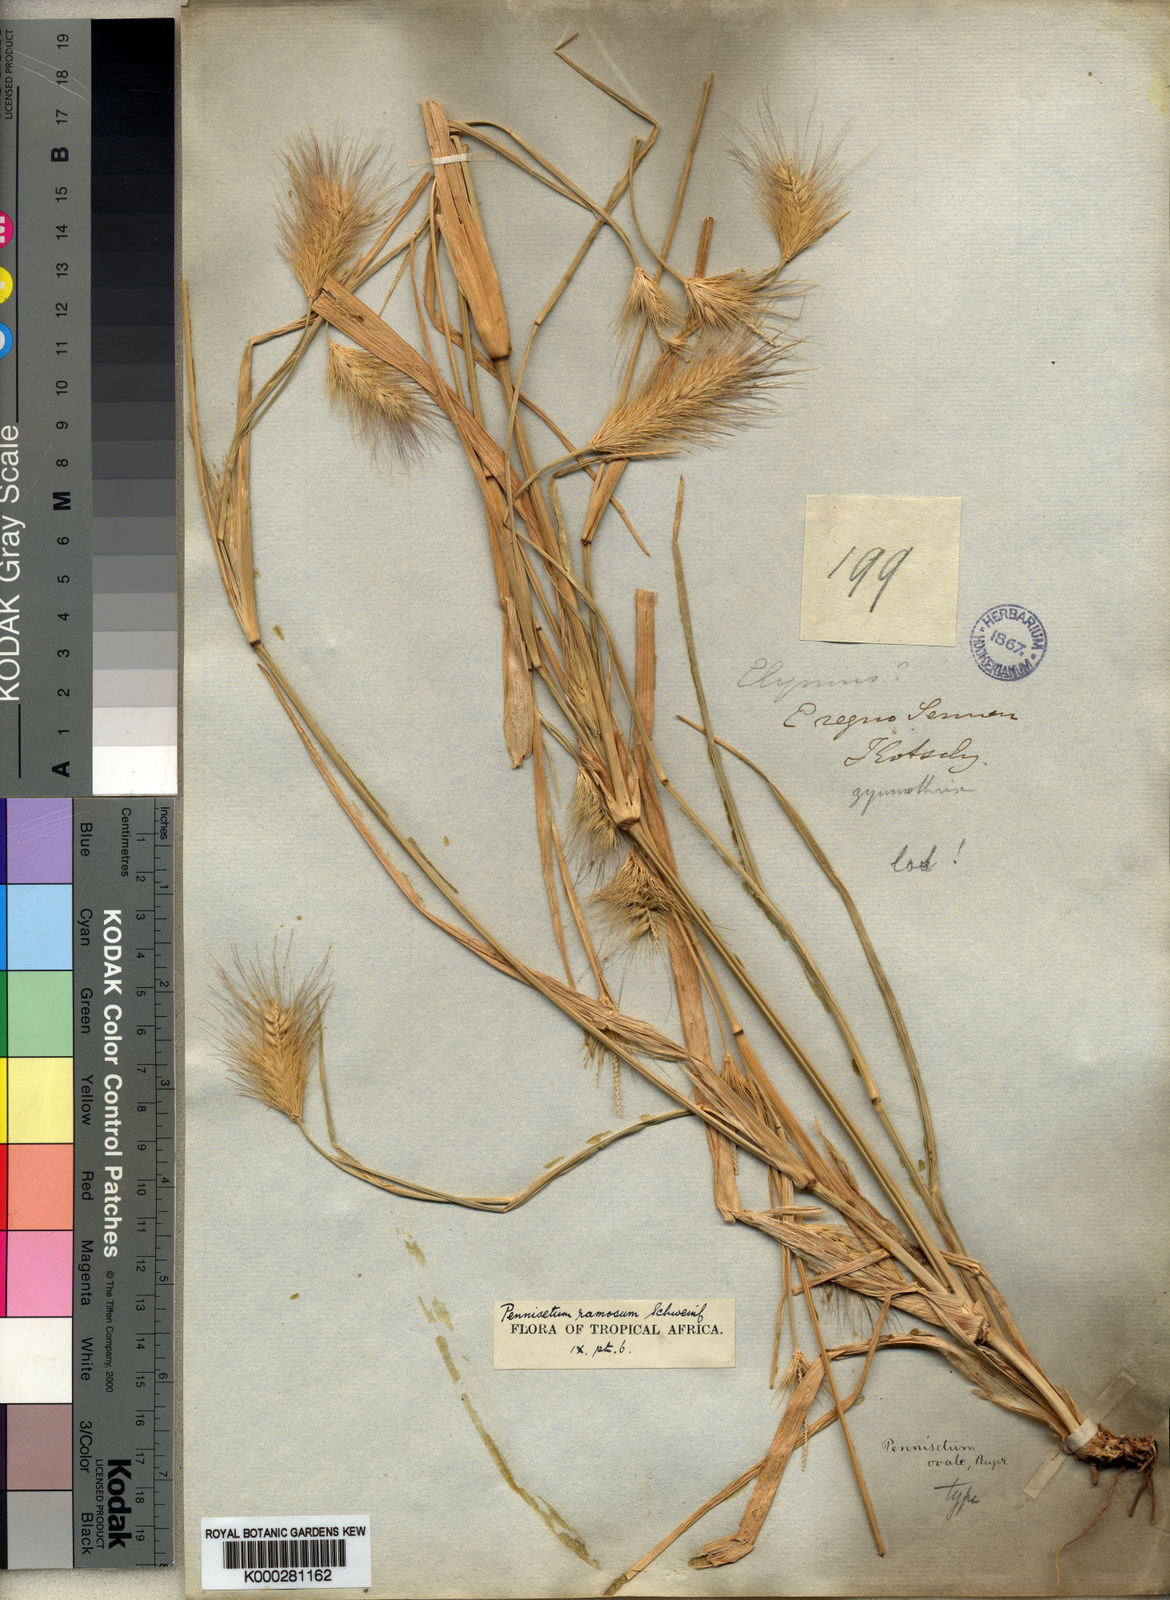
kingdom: Plantae
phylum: Tracheophyta
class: Liliopsida
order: Poales
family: Poaceae
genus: Cenchrus
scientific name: Cenchrus ramosus
